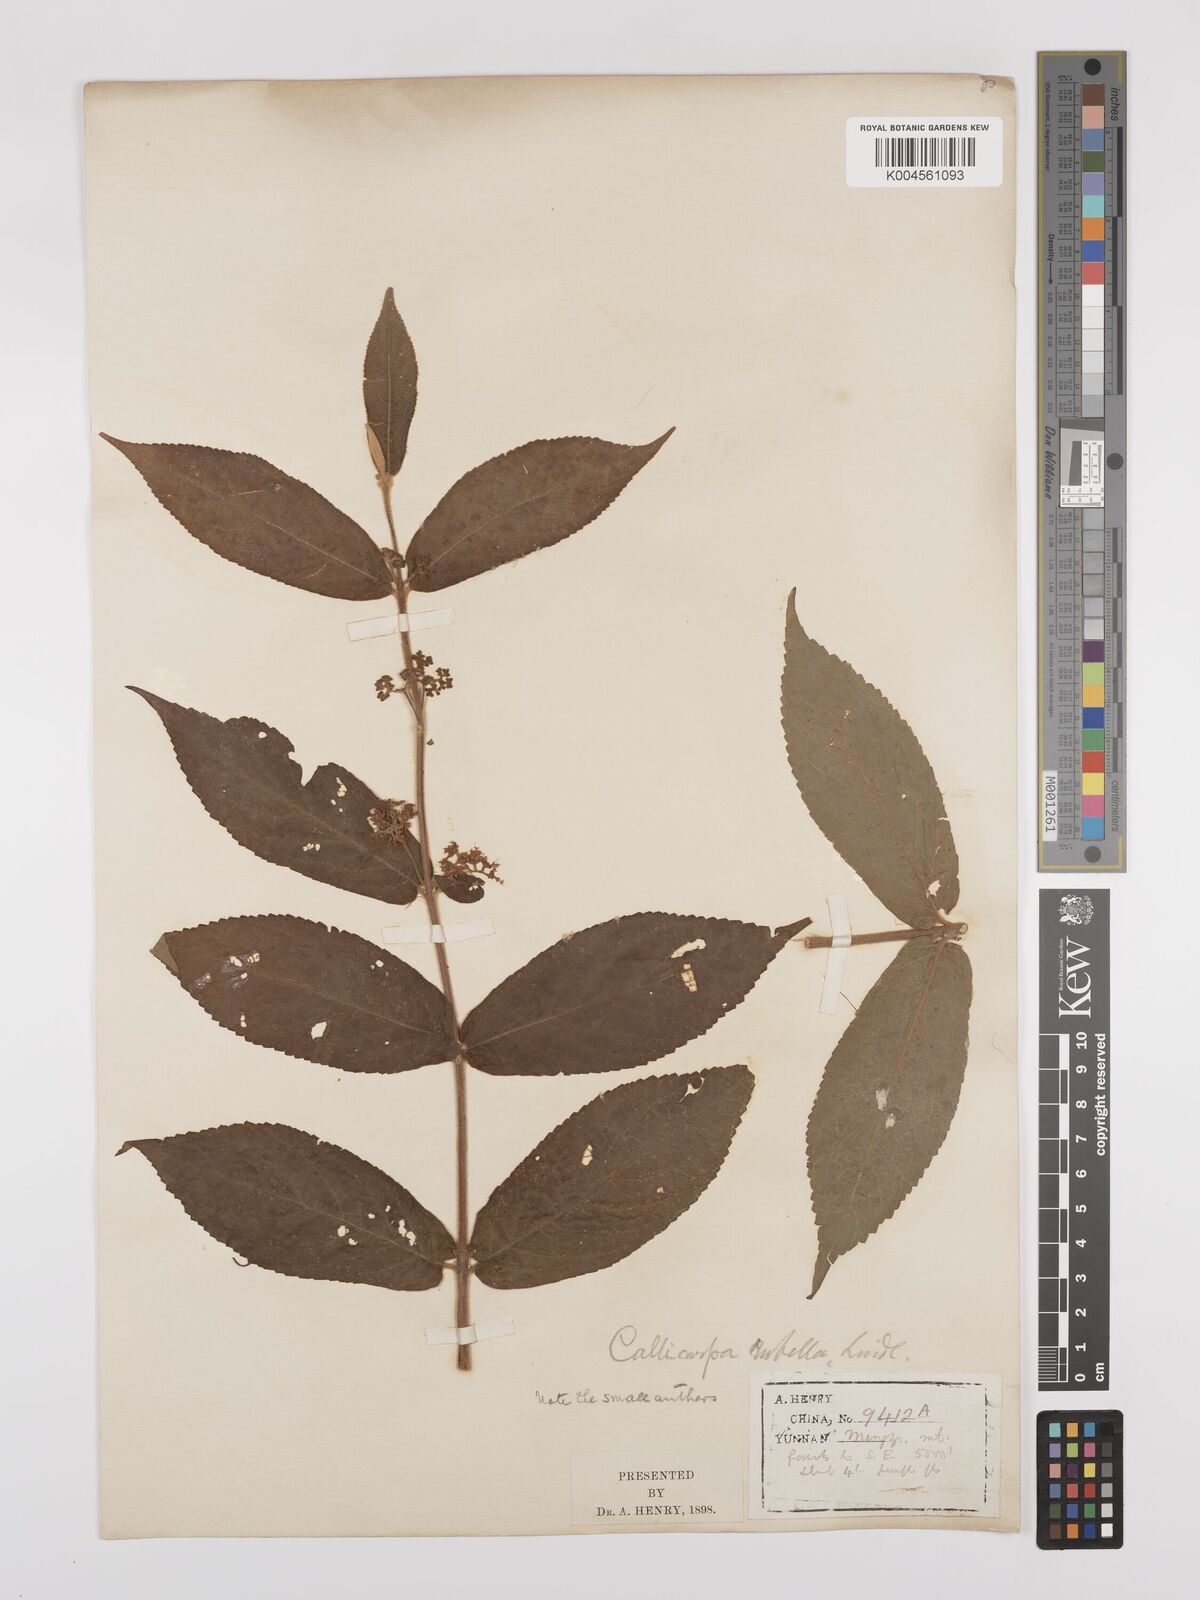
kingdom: Plantae
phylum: Tracheophyta
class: Magnoliopsida
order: Lamiales
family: Lamiaceae
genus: Callicarpa
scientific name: Callicarpa rubella
